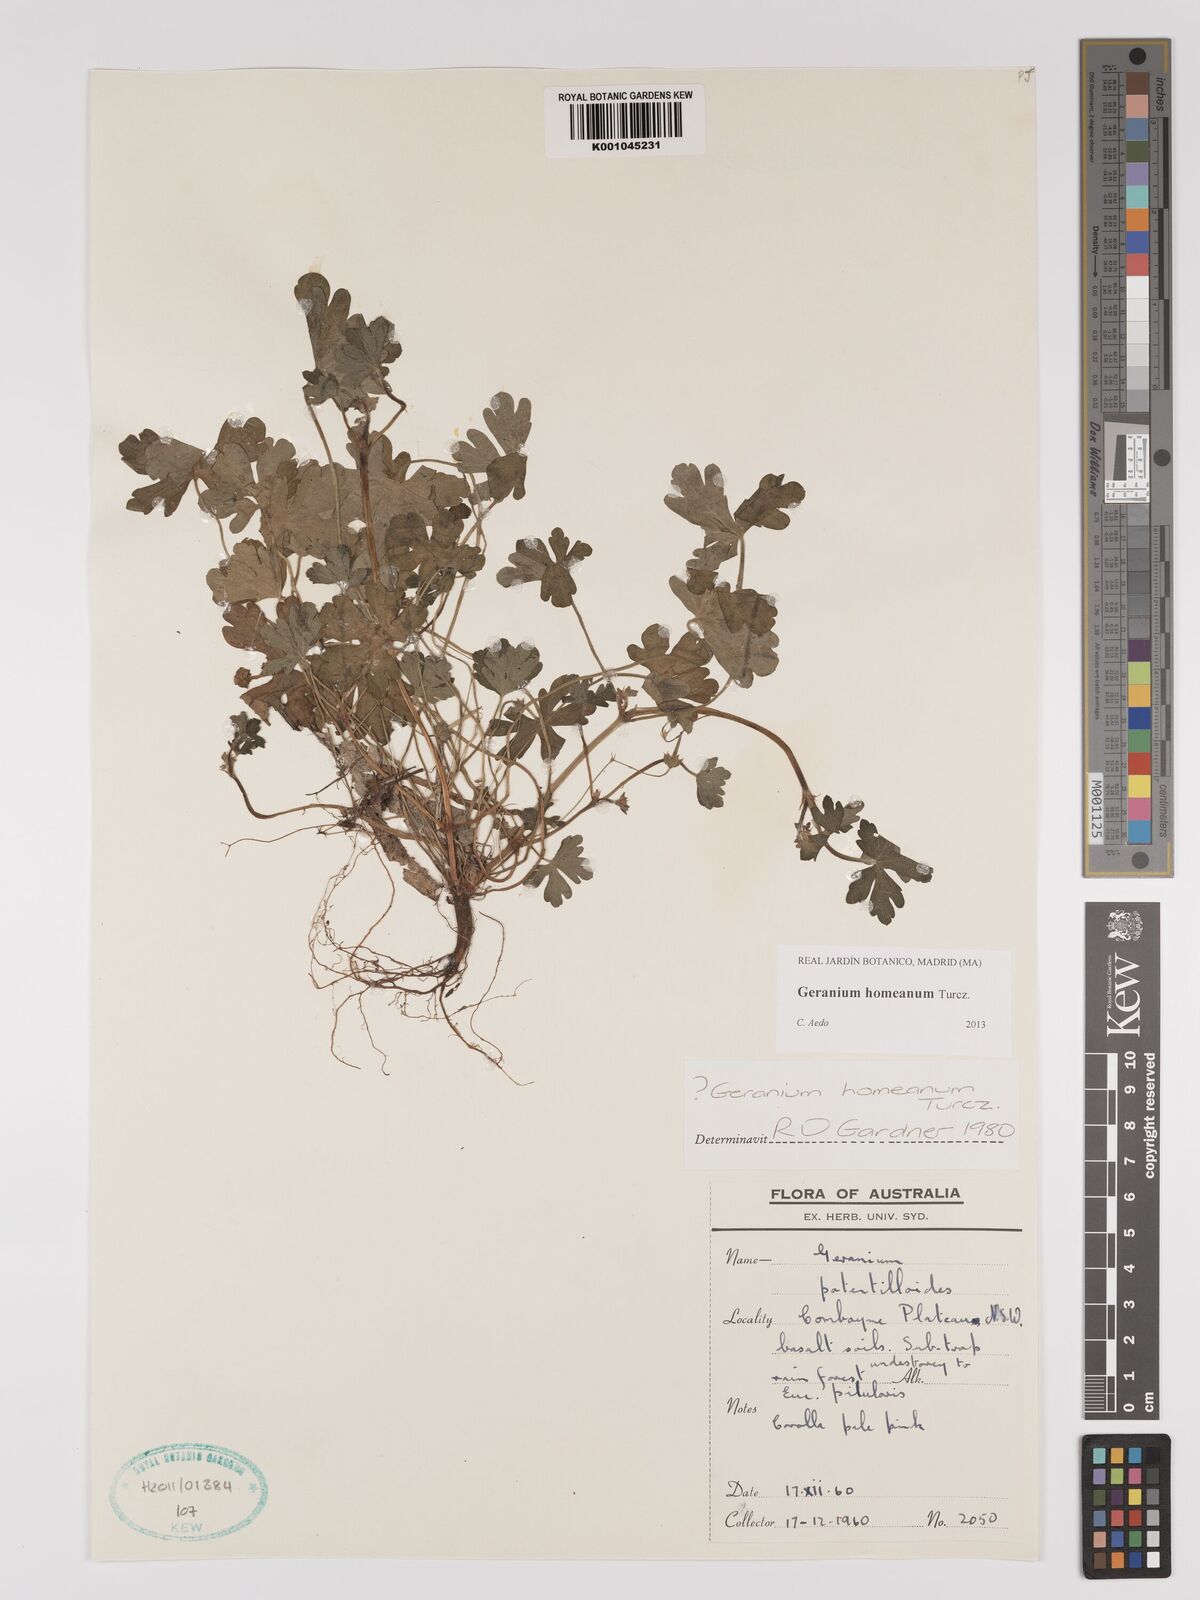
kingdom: Plantae
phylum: Tracheophyta
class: Magnoliopsida
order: Geraniales
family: Geraniaceae
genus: Geranium
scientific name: Geranium homeanum
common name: Australasian geranium
